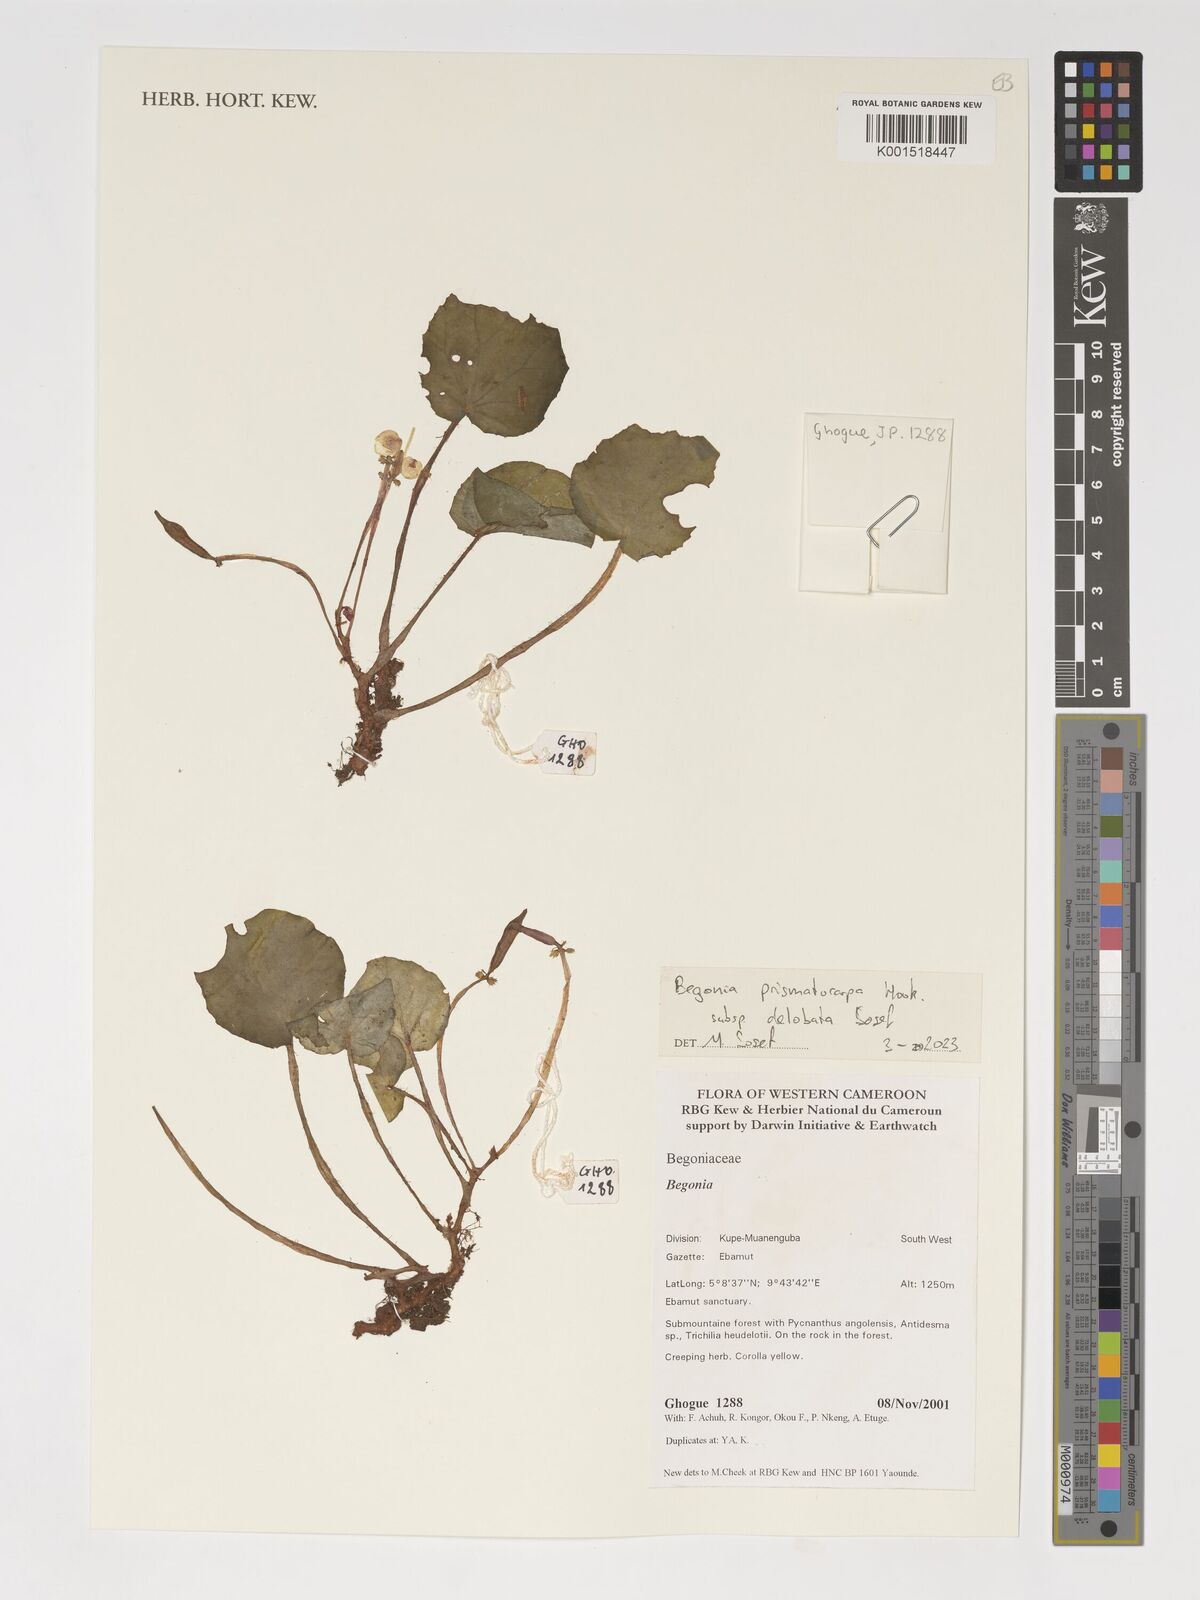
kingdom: Plantae
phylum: Tracheophyta
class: Magnoliopsida
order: Cucurbitales
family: Begoniaceae
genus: Begonia
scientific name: Begonia prismatocarpa
